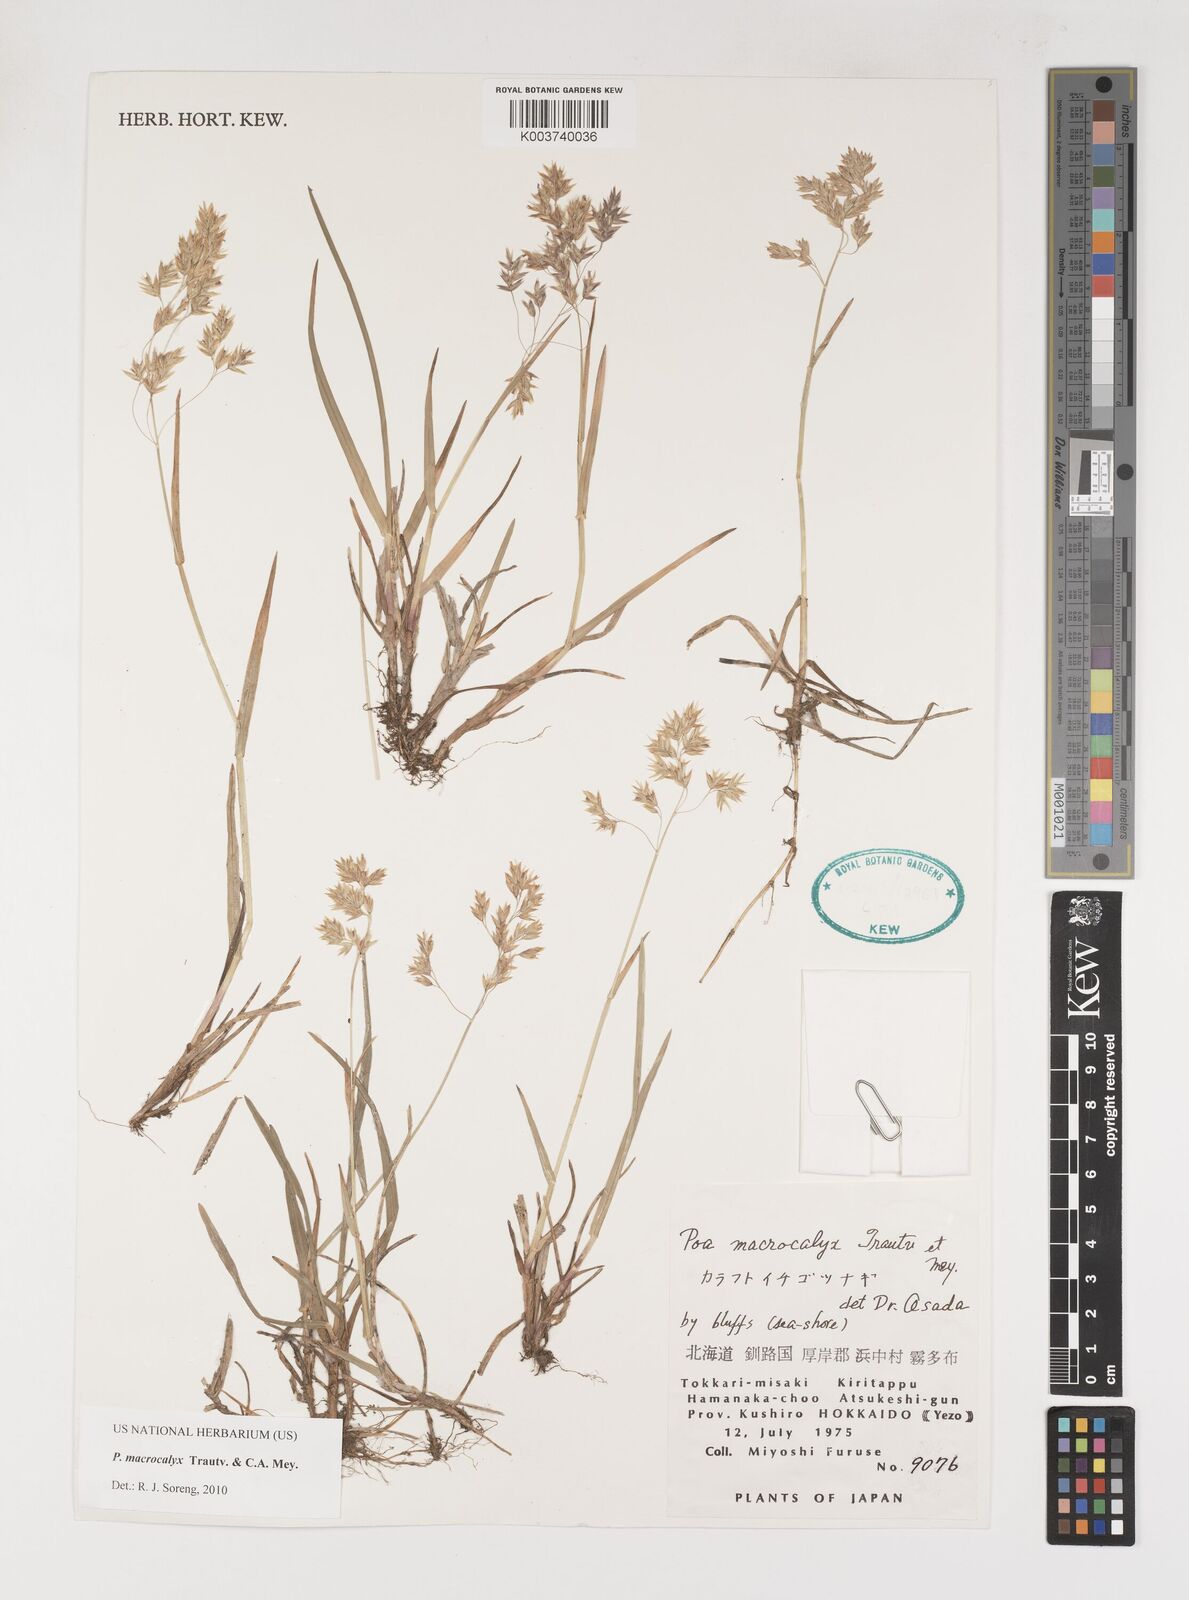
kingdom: Plantae
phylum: Tracheophyta
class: Liliopsida
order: Poales
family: Poaceae
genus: Poa
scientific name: Poa macrocalyx
